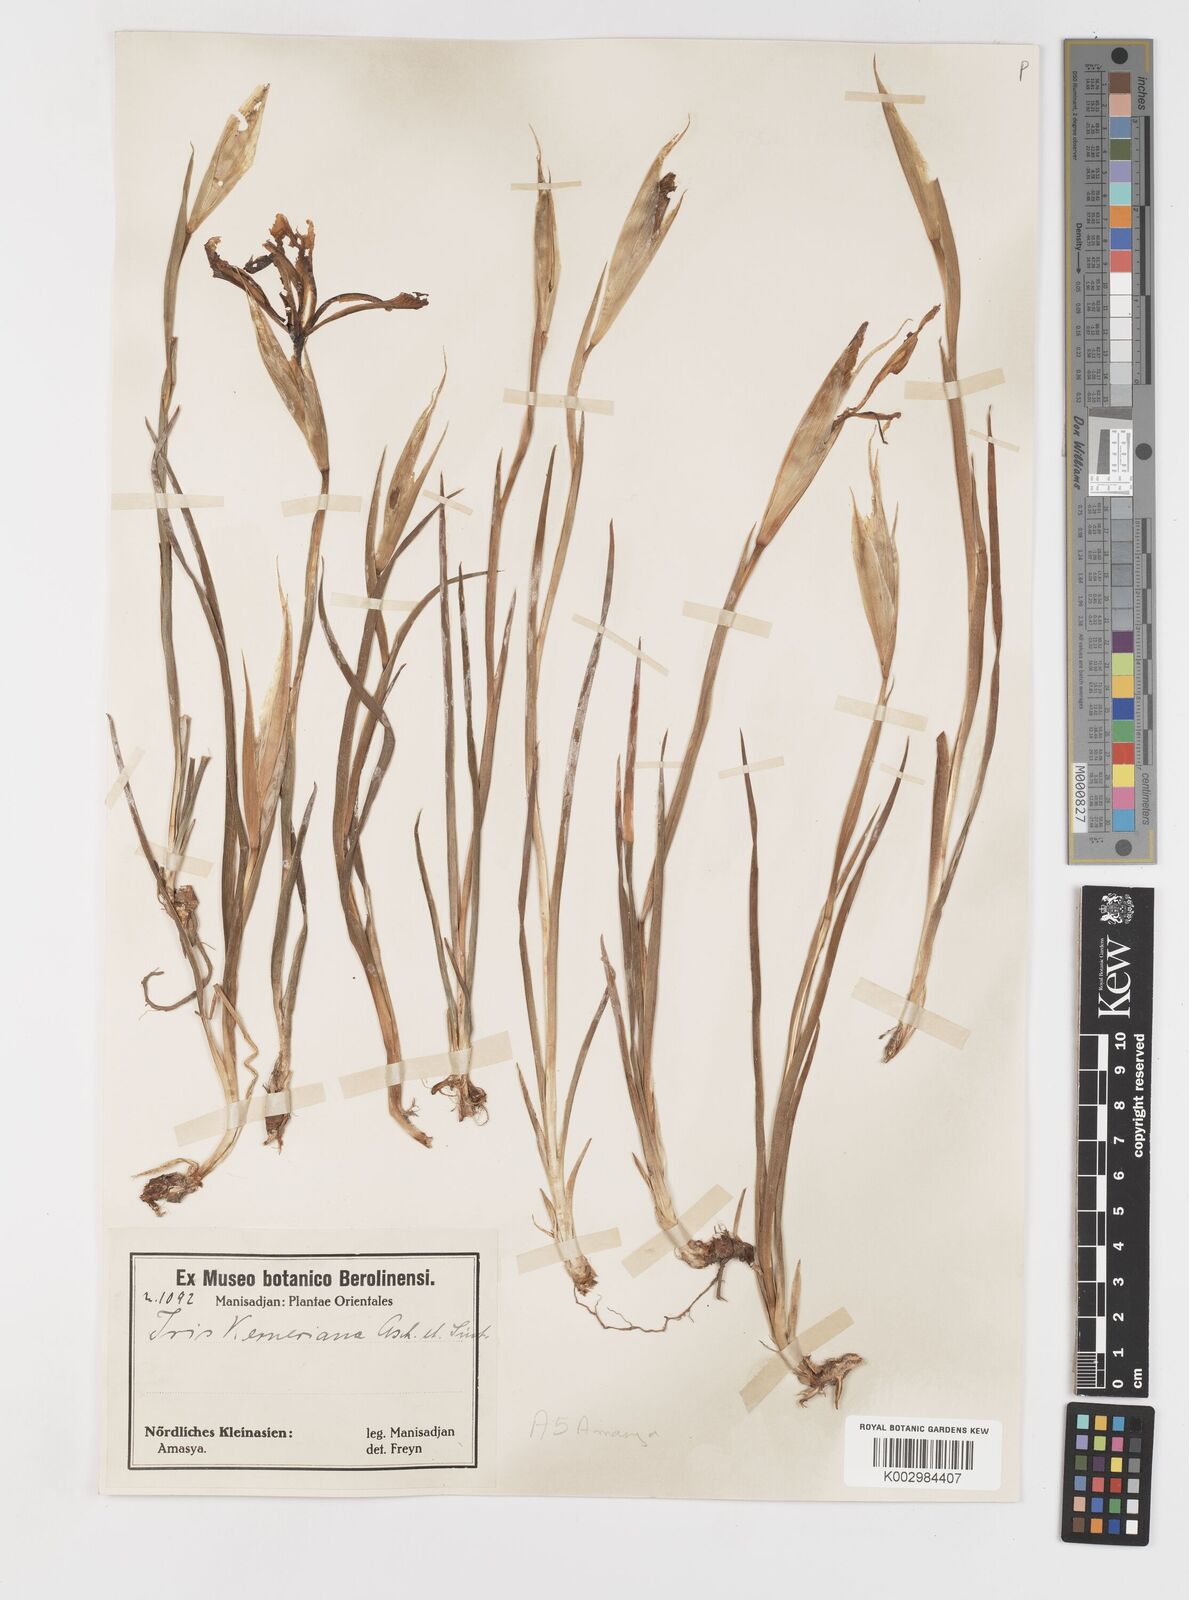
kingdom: Plantae
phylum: Tracheophyta
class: Liliopsida
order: Asparagales
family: Iridaceae
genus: Iris
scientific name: Iris haussknechtii
